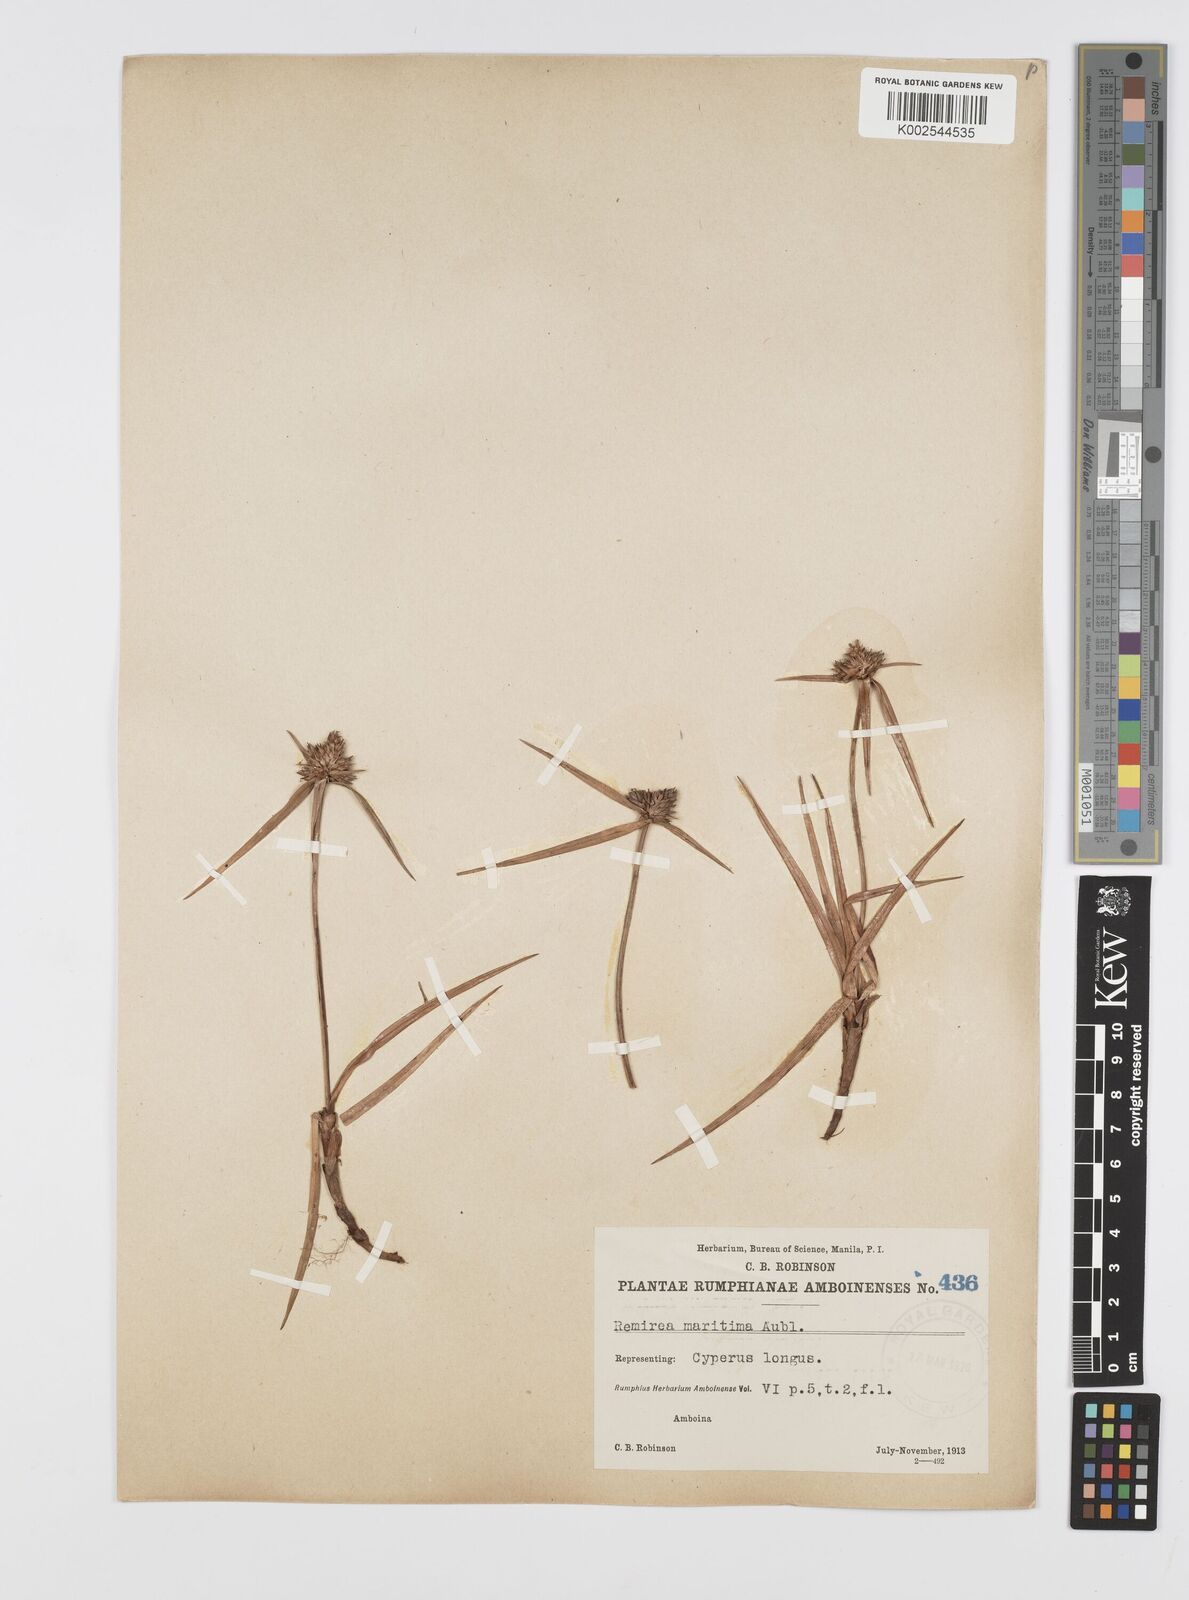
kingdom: Plantae
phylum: Tracheophyta
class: Liliopsida
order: Poales
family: Cyperaceae
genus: Cyperus
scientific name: Cyperus
